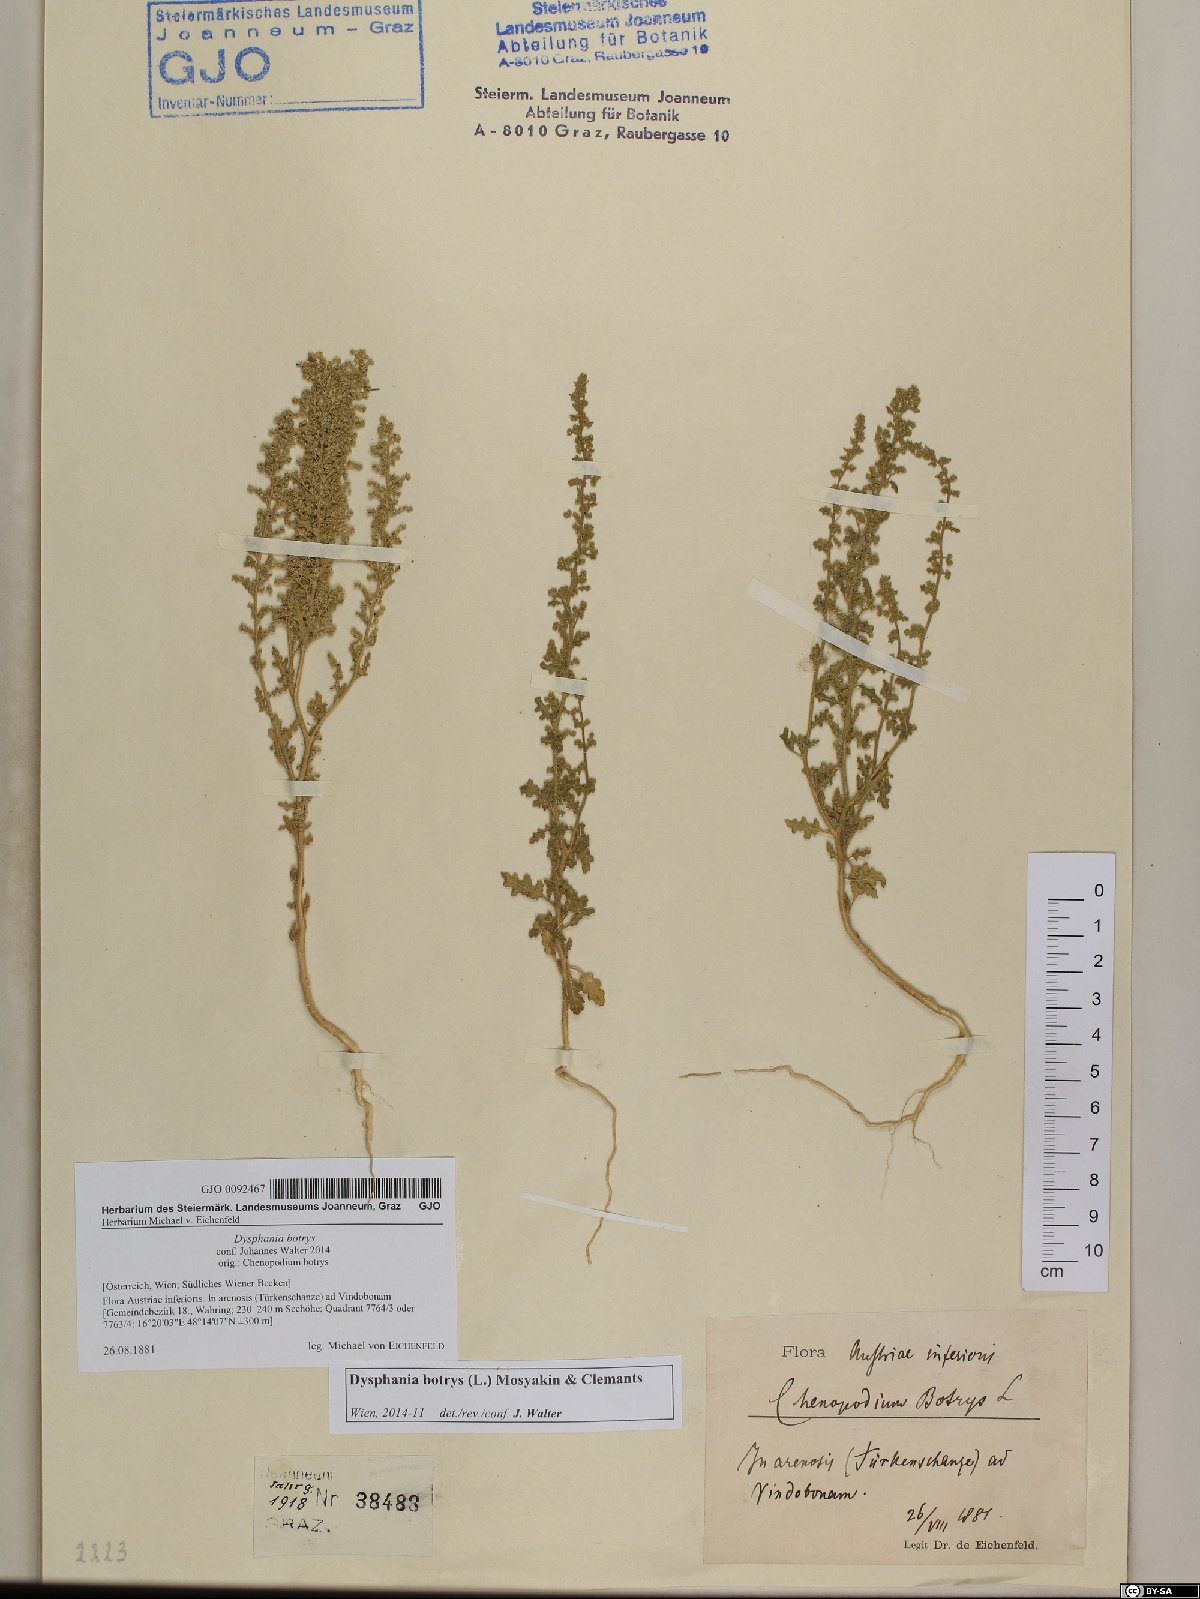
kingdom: Plantae
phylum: Tracheophyta
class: Magnoliopsida
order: Caryophyllales
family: Amaranthaceae
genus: Dysphania
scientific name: Dysphania botrys
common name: Feather-geranium
